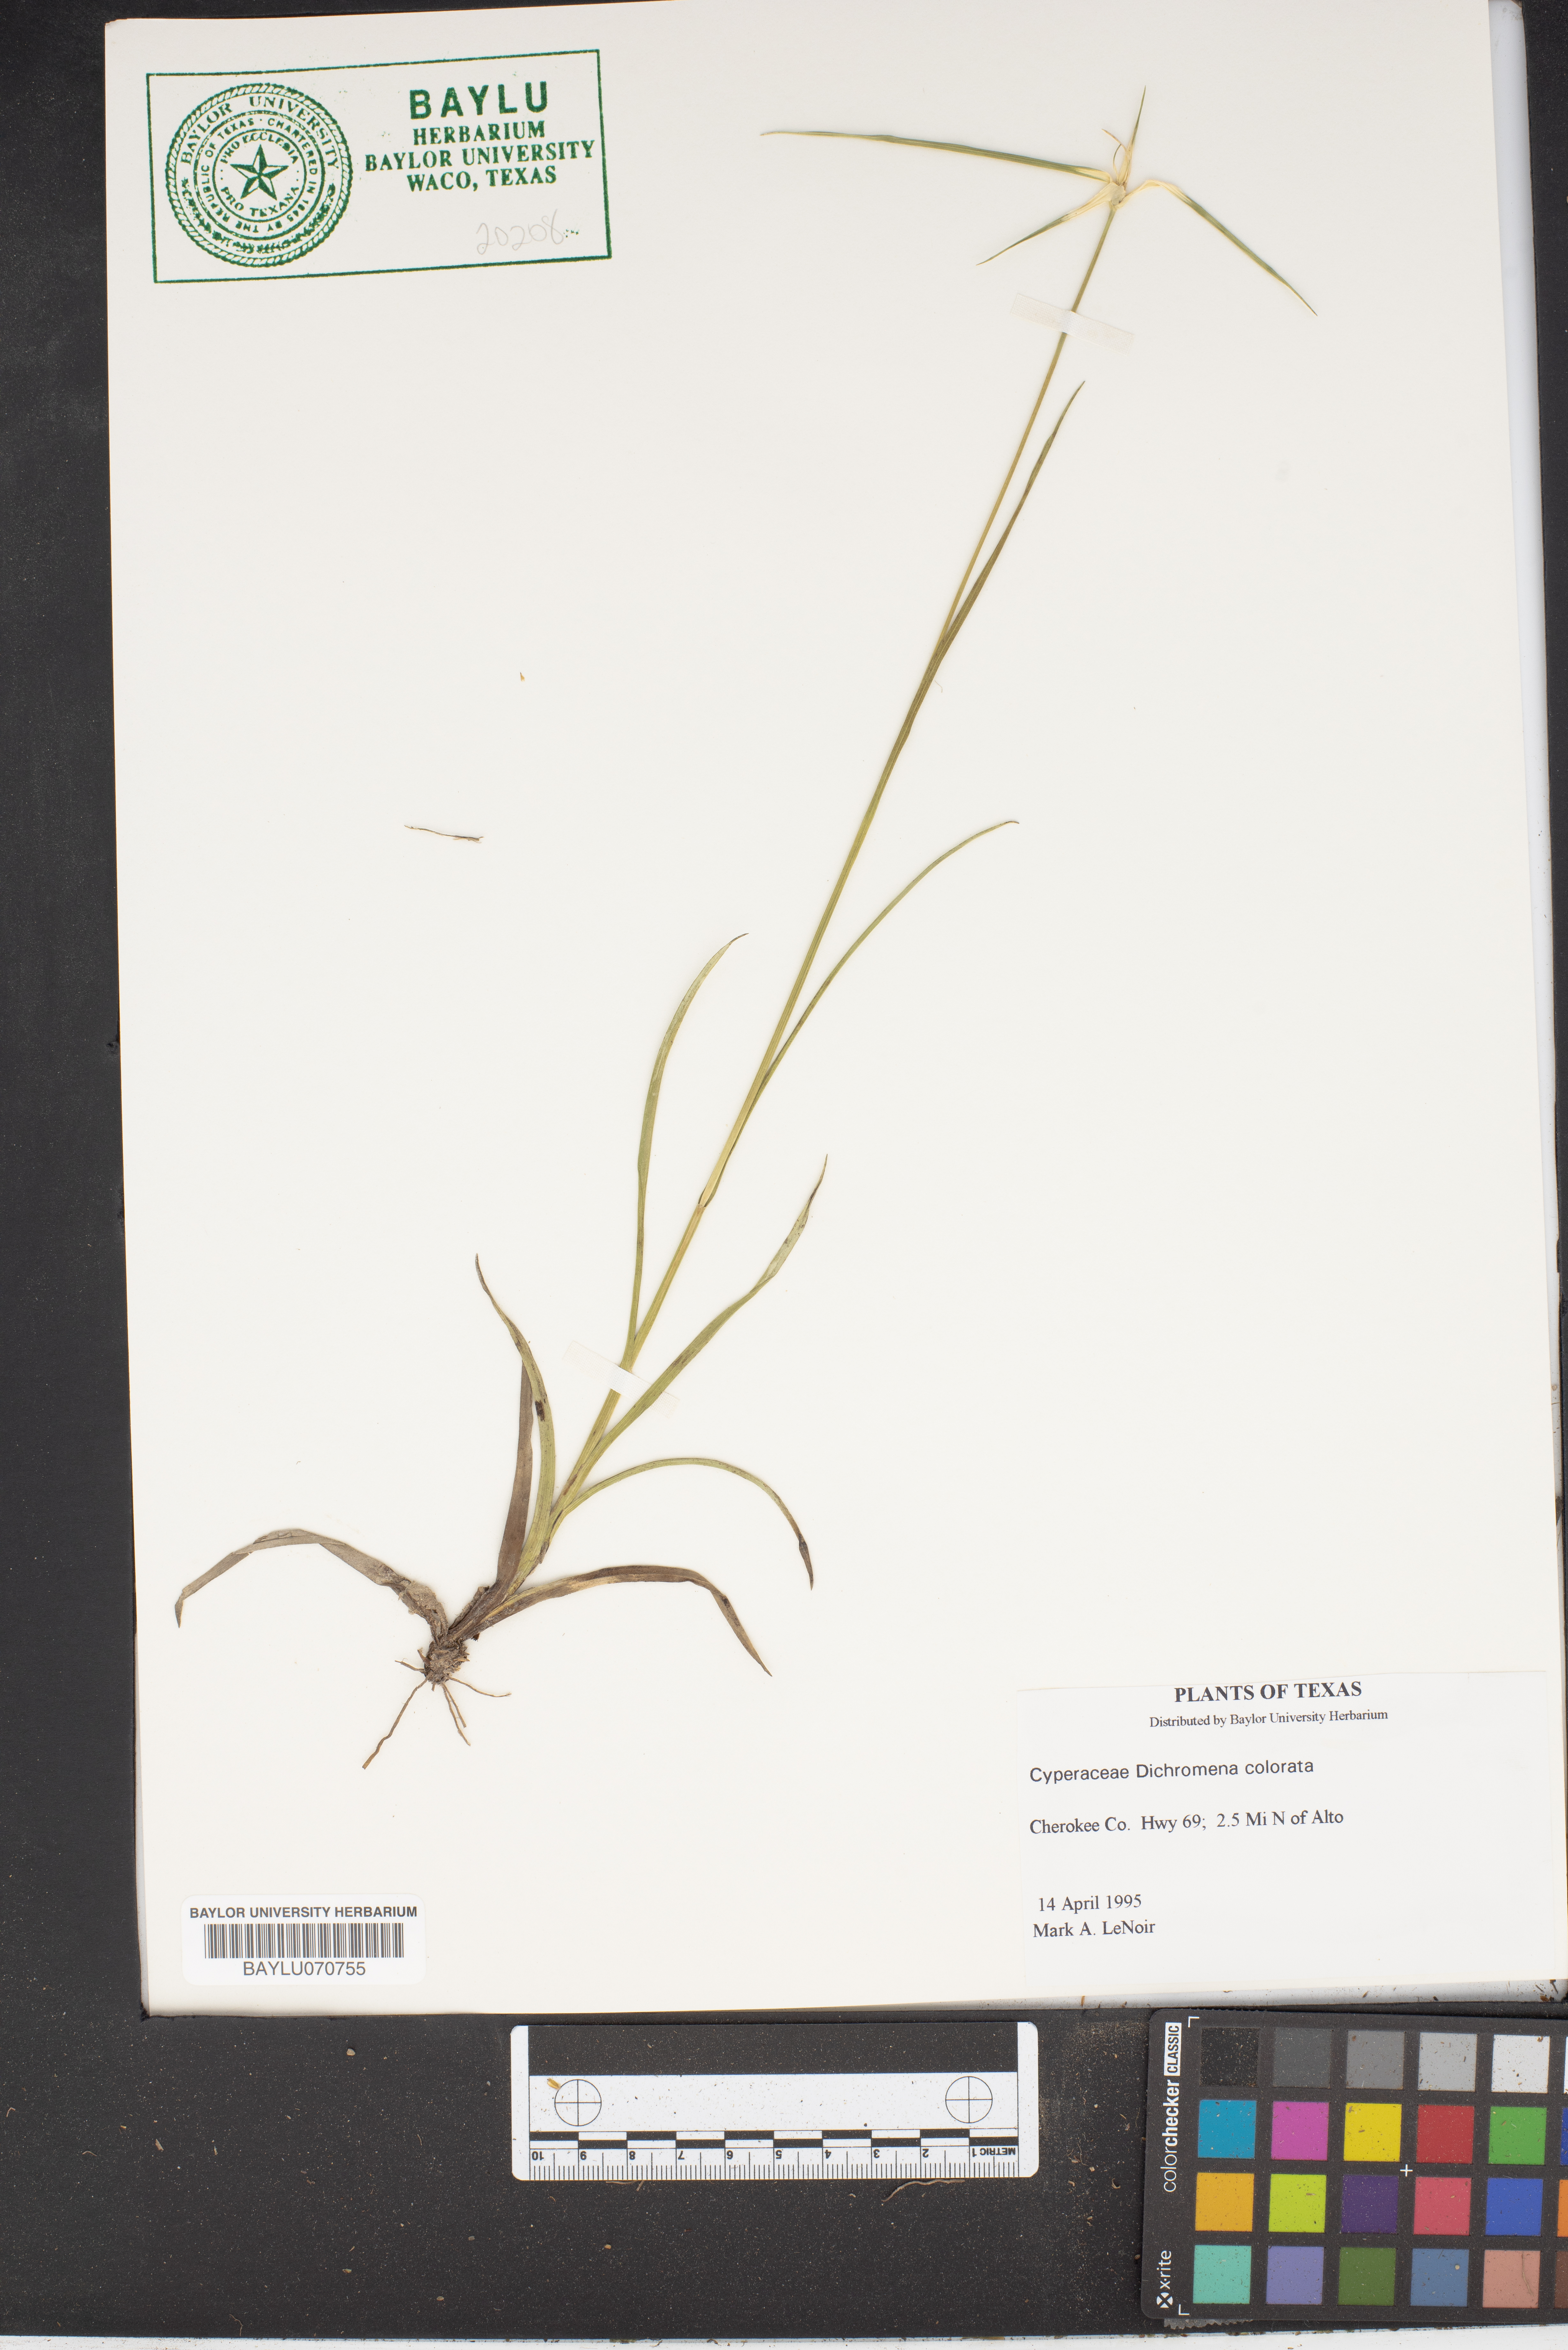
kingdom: Plantae
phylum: Tracheophyta
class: Liliopsida
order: Poales
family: Cyperaceae
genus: Rhynchospora
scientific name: Rhynchospora colorata
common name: Star sedge
